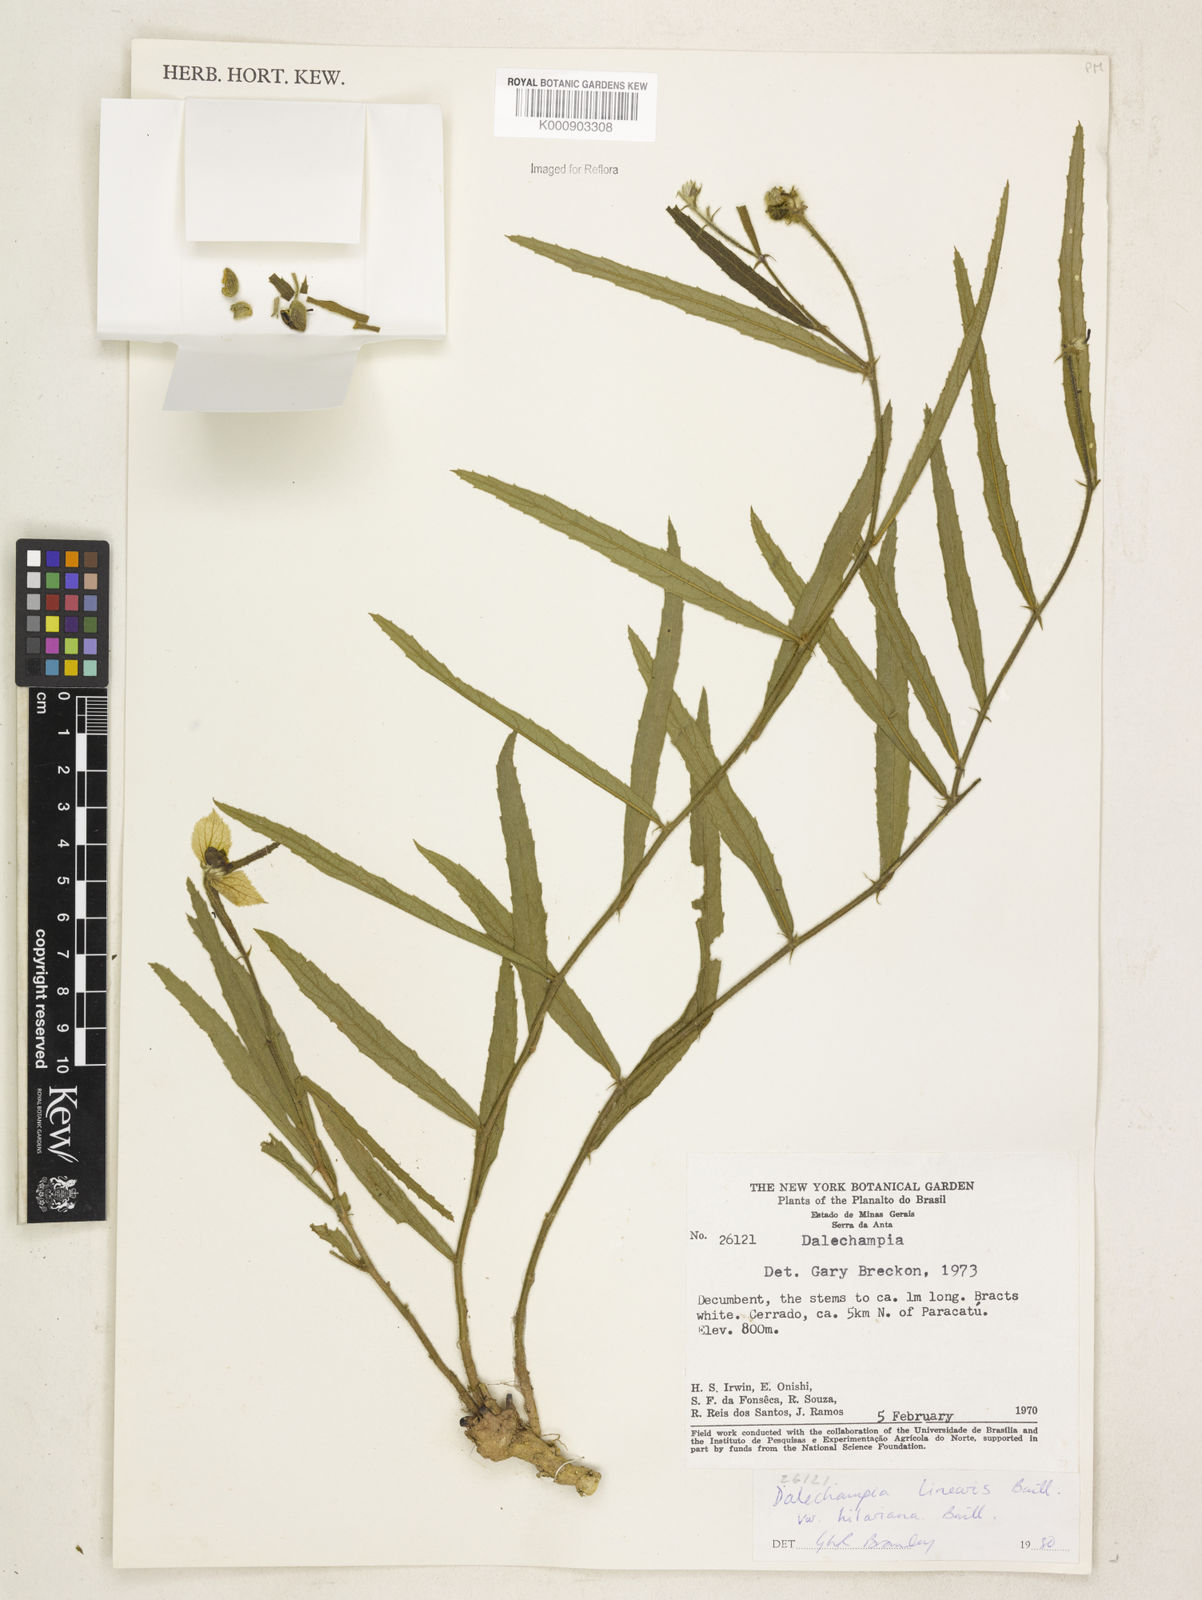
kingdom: Plantae
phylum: Tracheophyta
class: Magnoliopsida
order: Malpighiales
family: Euphorbiaceae
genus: Dalechampia
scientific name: Dalechampia linearis
